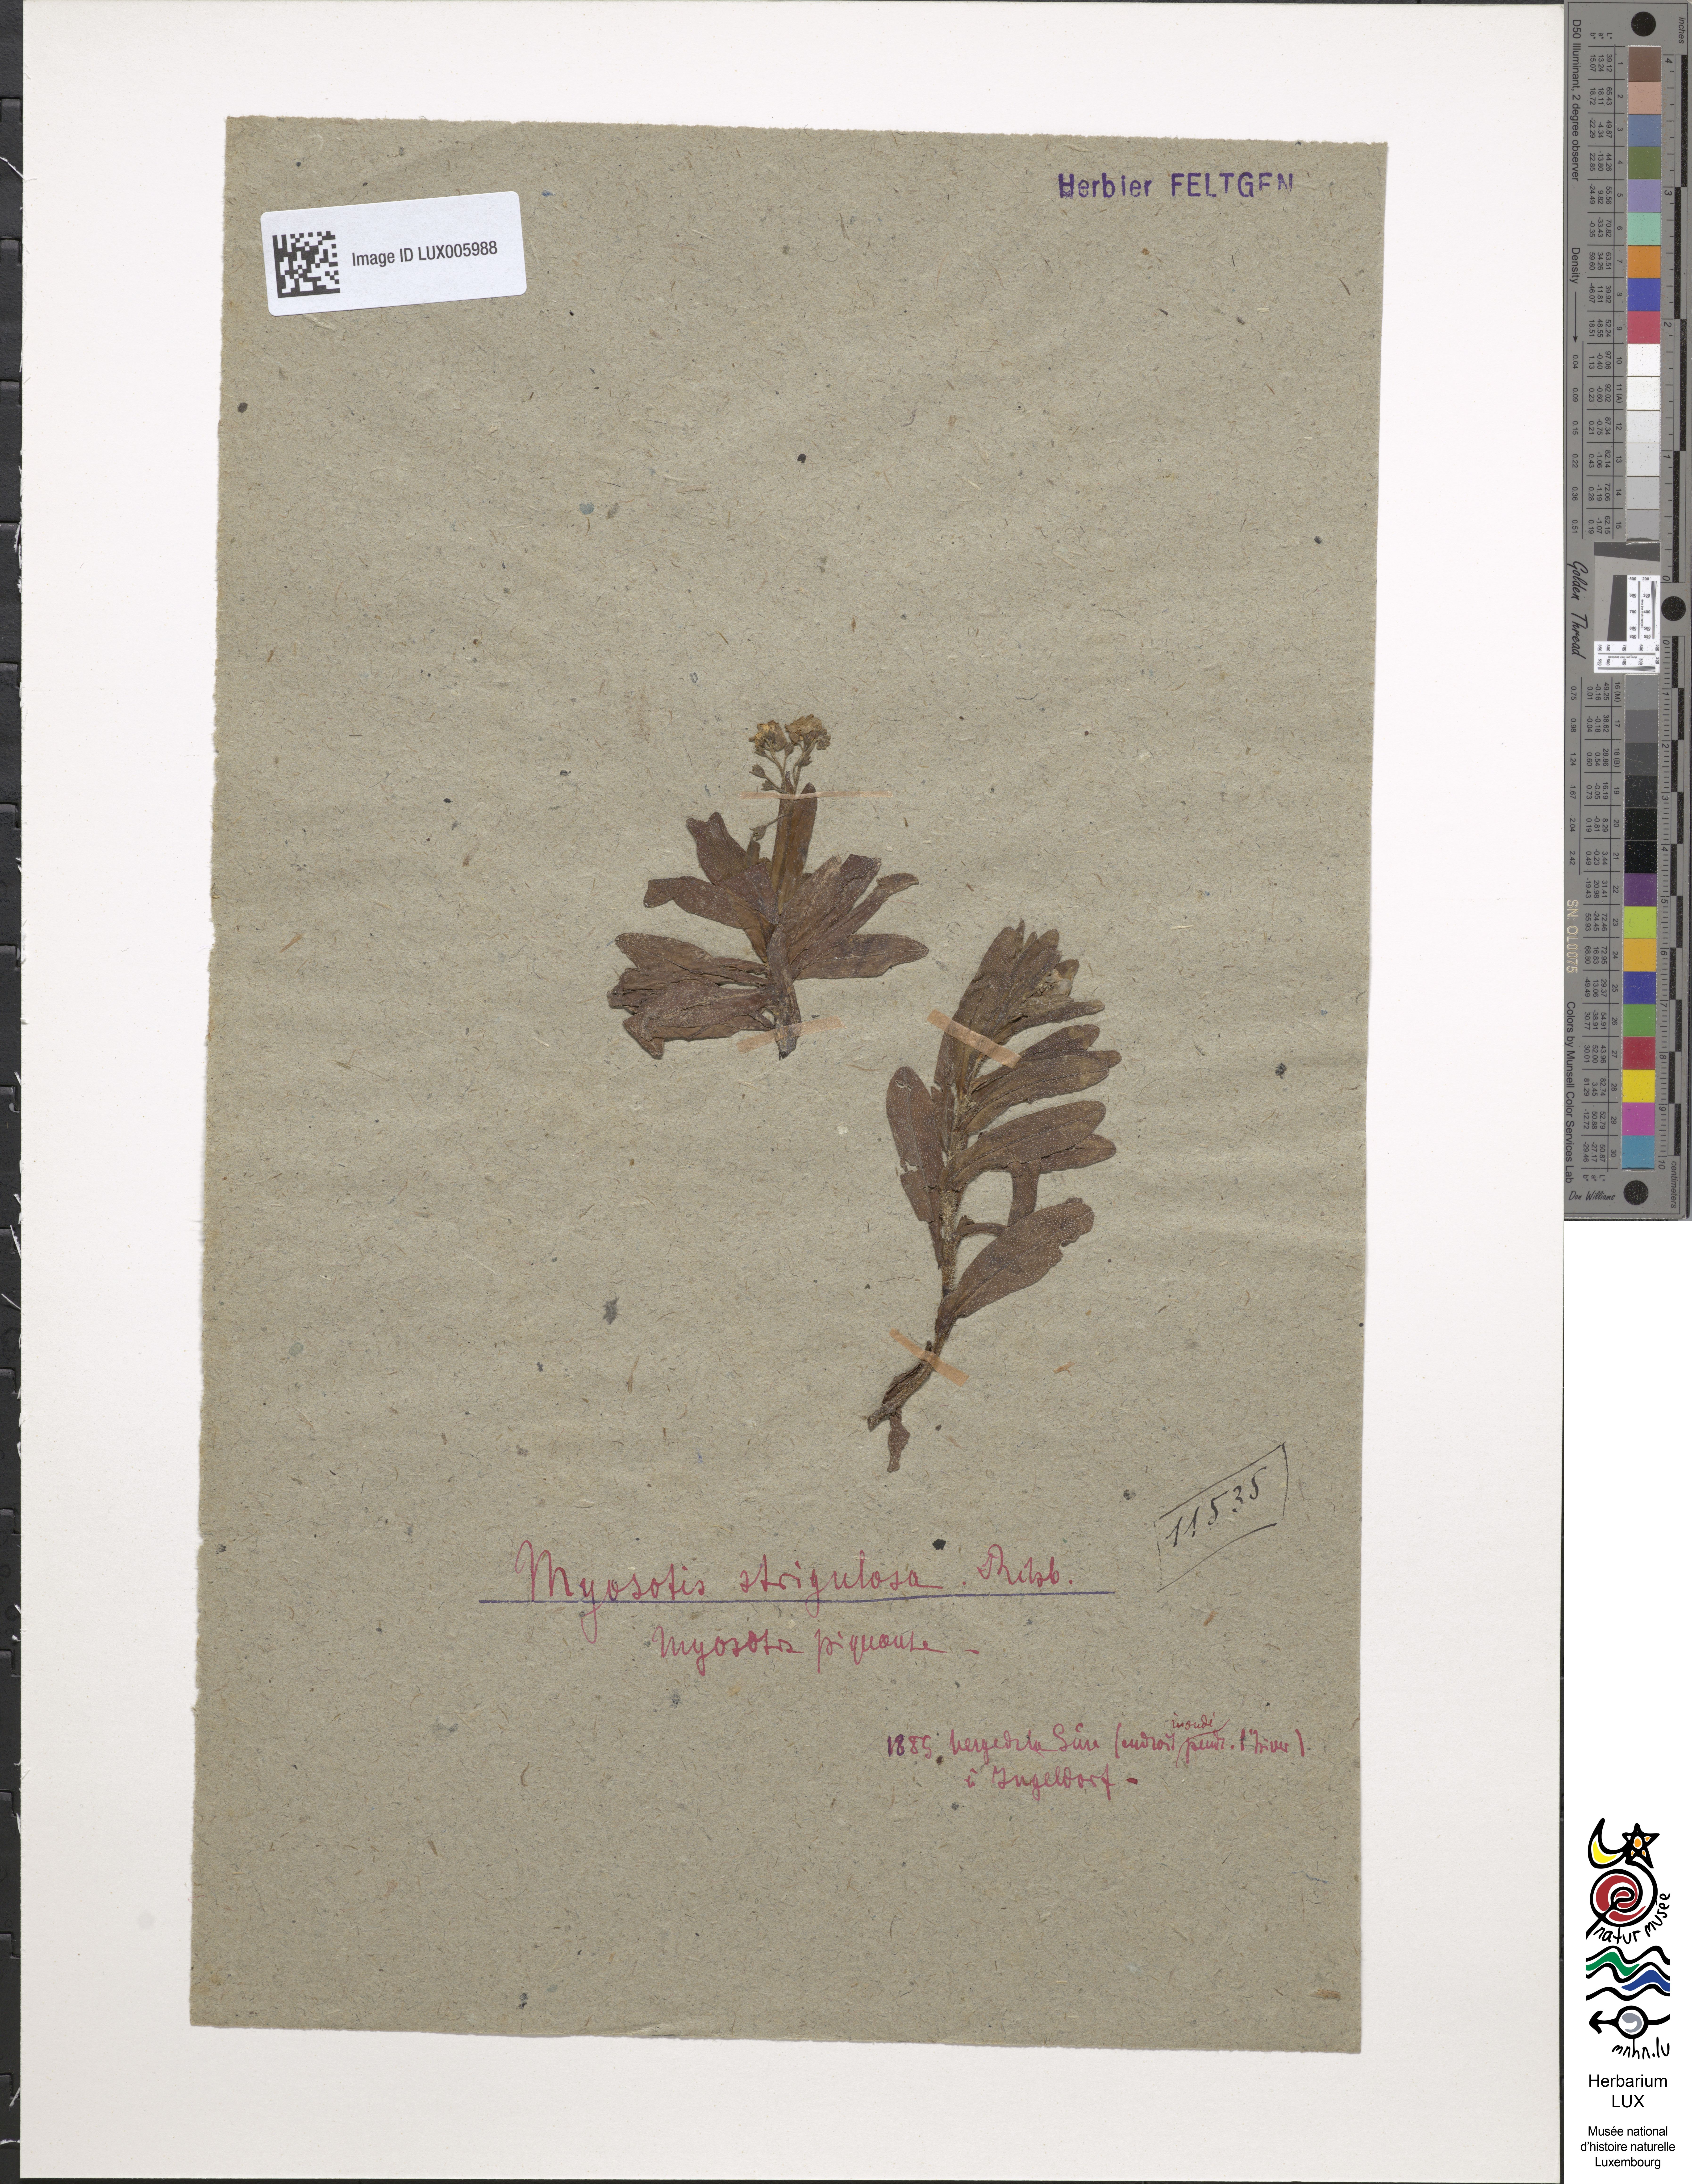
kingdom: Plantae
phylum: Tracheophyta
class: Magnoliopsida
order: Boraginales
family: Boraginaceae
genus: Myosotis
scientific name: Myosotis nemorosa
